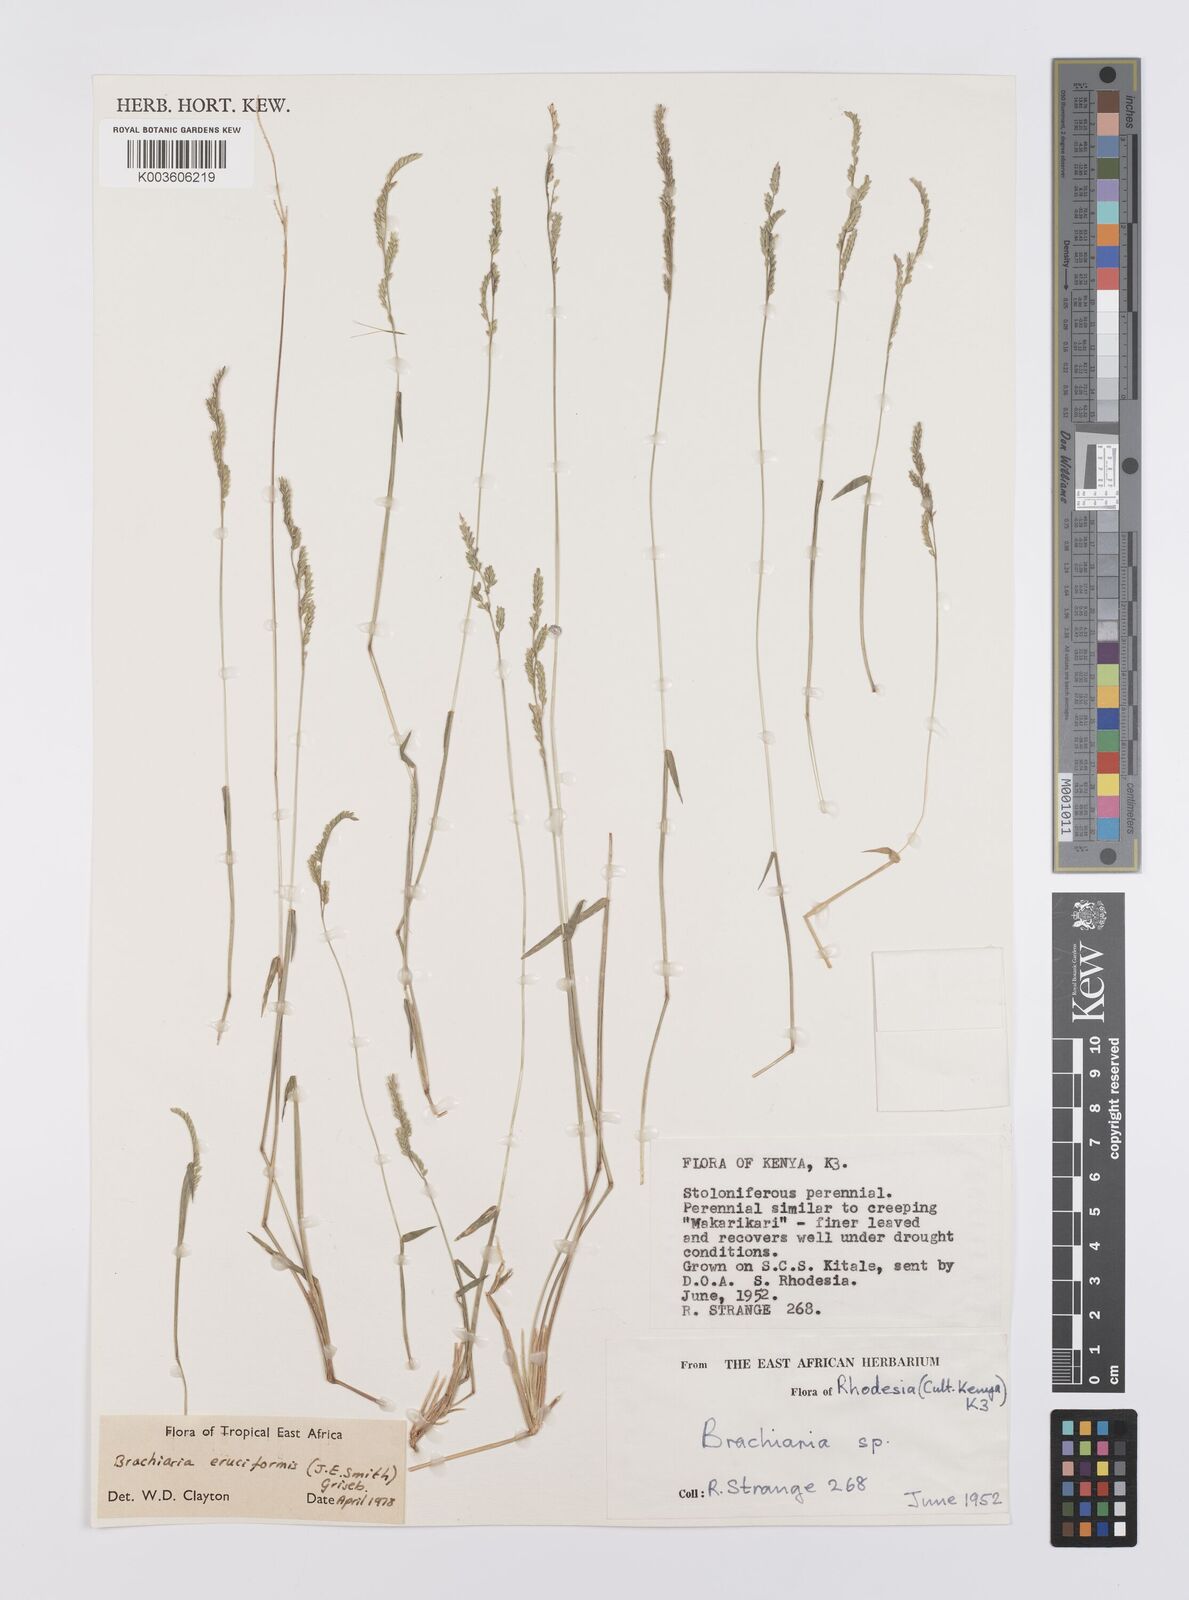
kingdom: Plantae
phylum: Tracheophyta
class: Liliopsida
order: Poales
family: Poaceae
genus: Moorochloa
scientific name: Moorochloa eruciformis
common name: Sweet signalgrass
